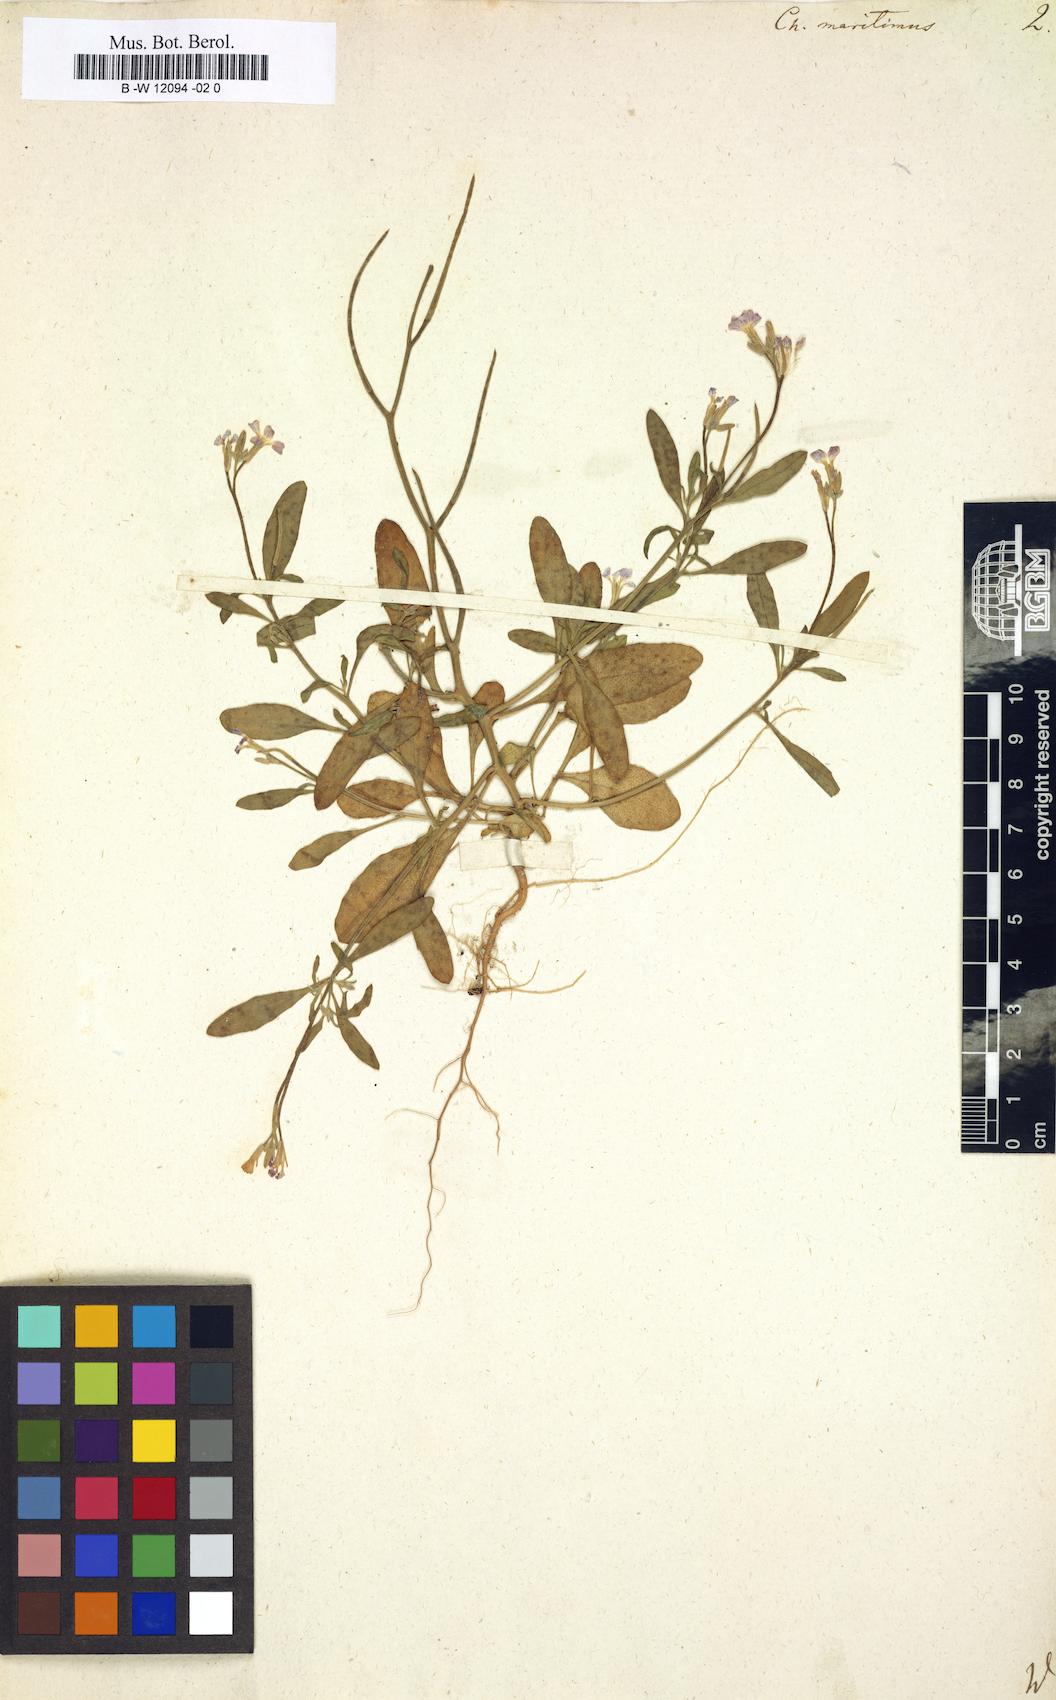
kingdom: Plantae
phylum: Tracheophyta
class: Magnoliopsida
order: Brassicales
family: Brassicaceae
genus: Malcolmia
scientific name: Malcolmia maritima
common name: Virginia stock
